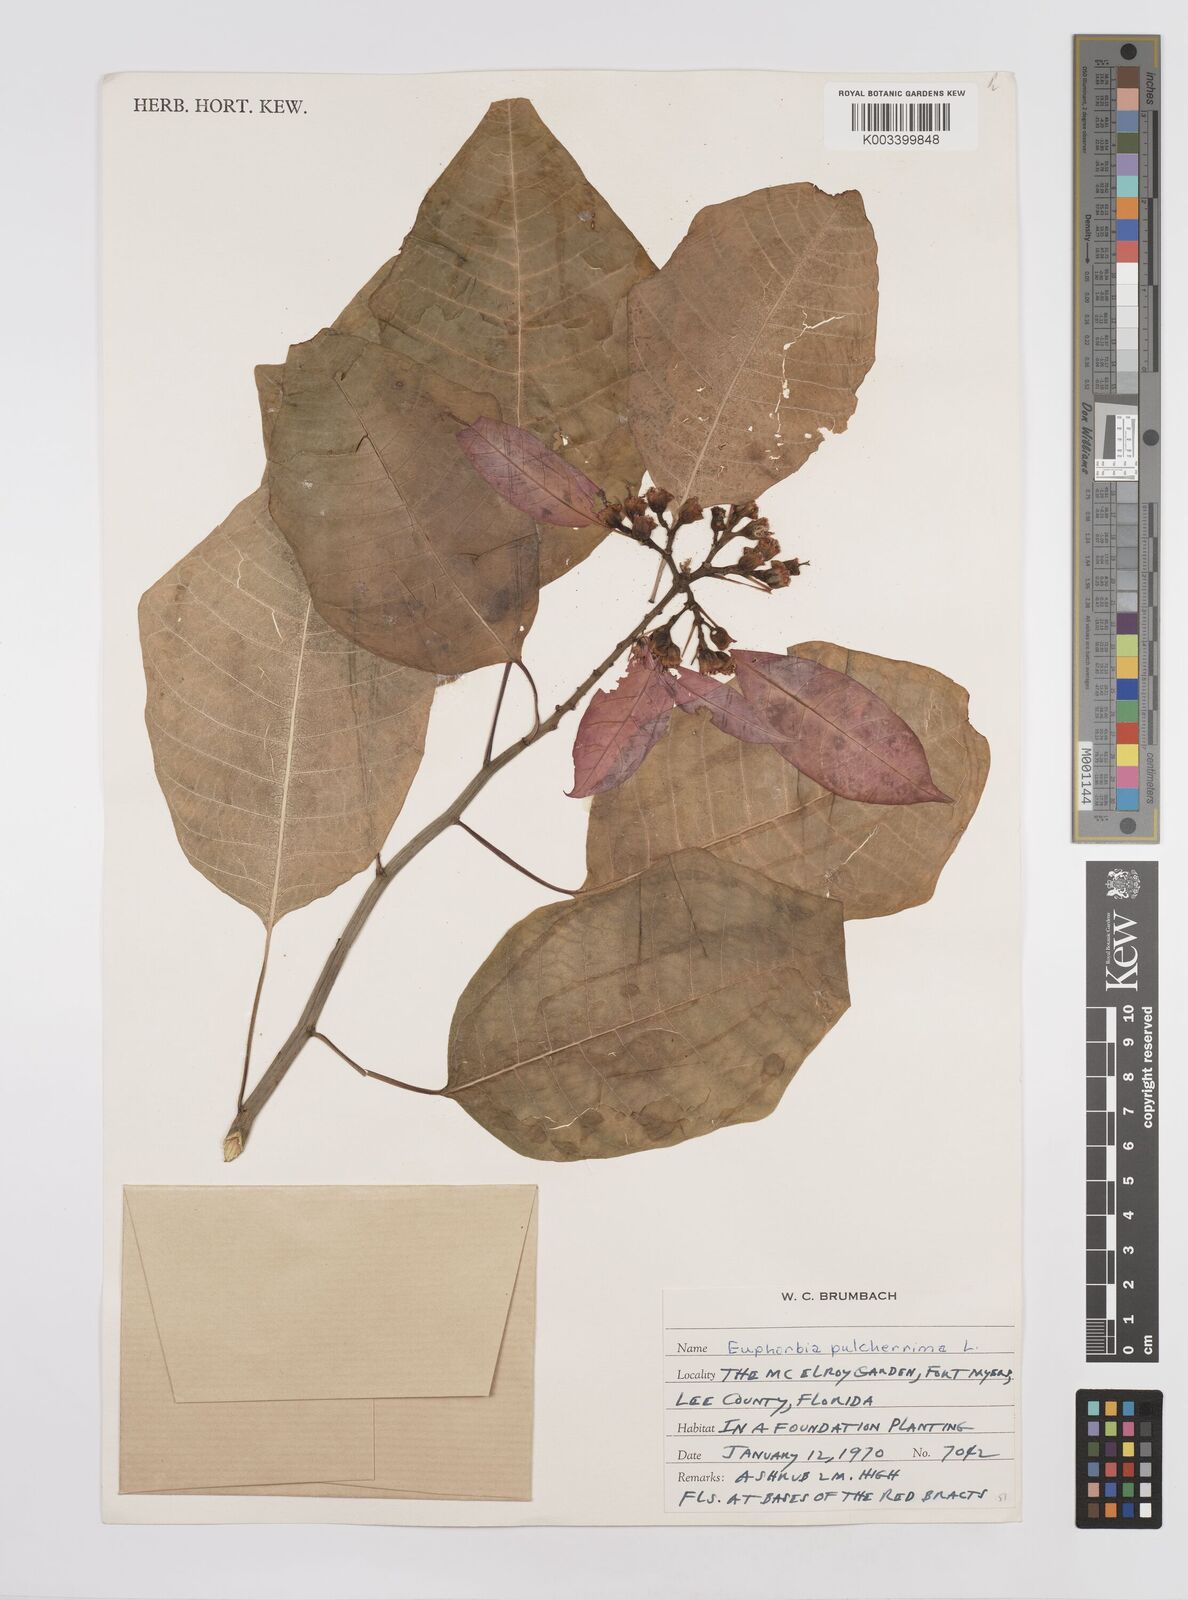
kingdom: Plantae
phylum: Tracheophyta
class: Magnoliopsida
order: Malpighiales
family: Euphorbiaceae
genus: Euphorbia
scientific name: Euphorbia pulcherrima
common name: Christmas-flower
